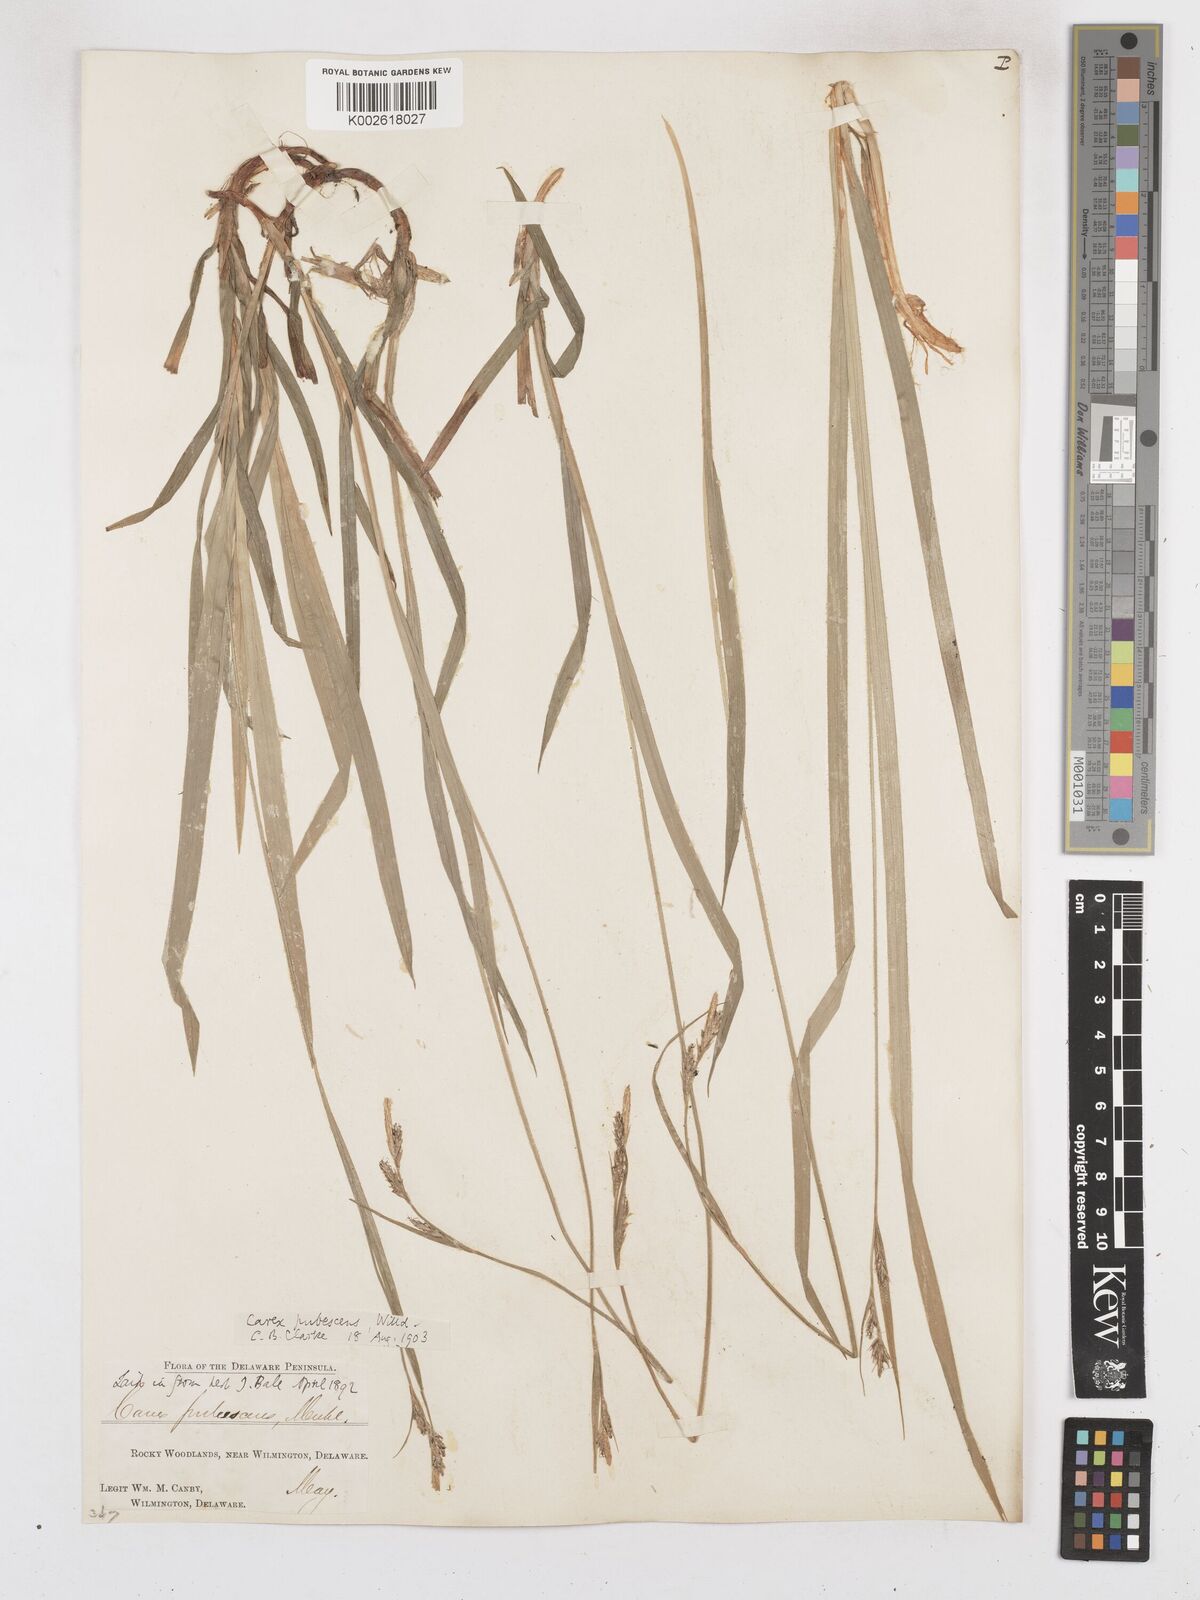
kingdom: Plantae
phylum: Tracheophyta
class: Liliopsida
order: Poales
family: Cyperaceae
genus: Carex
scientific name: Carex hirtifolia
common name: Hairy sedge
